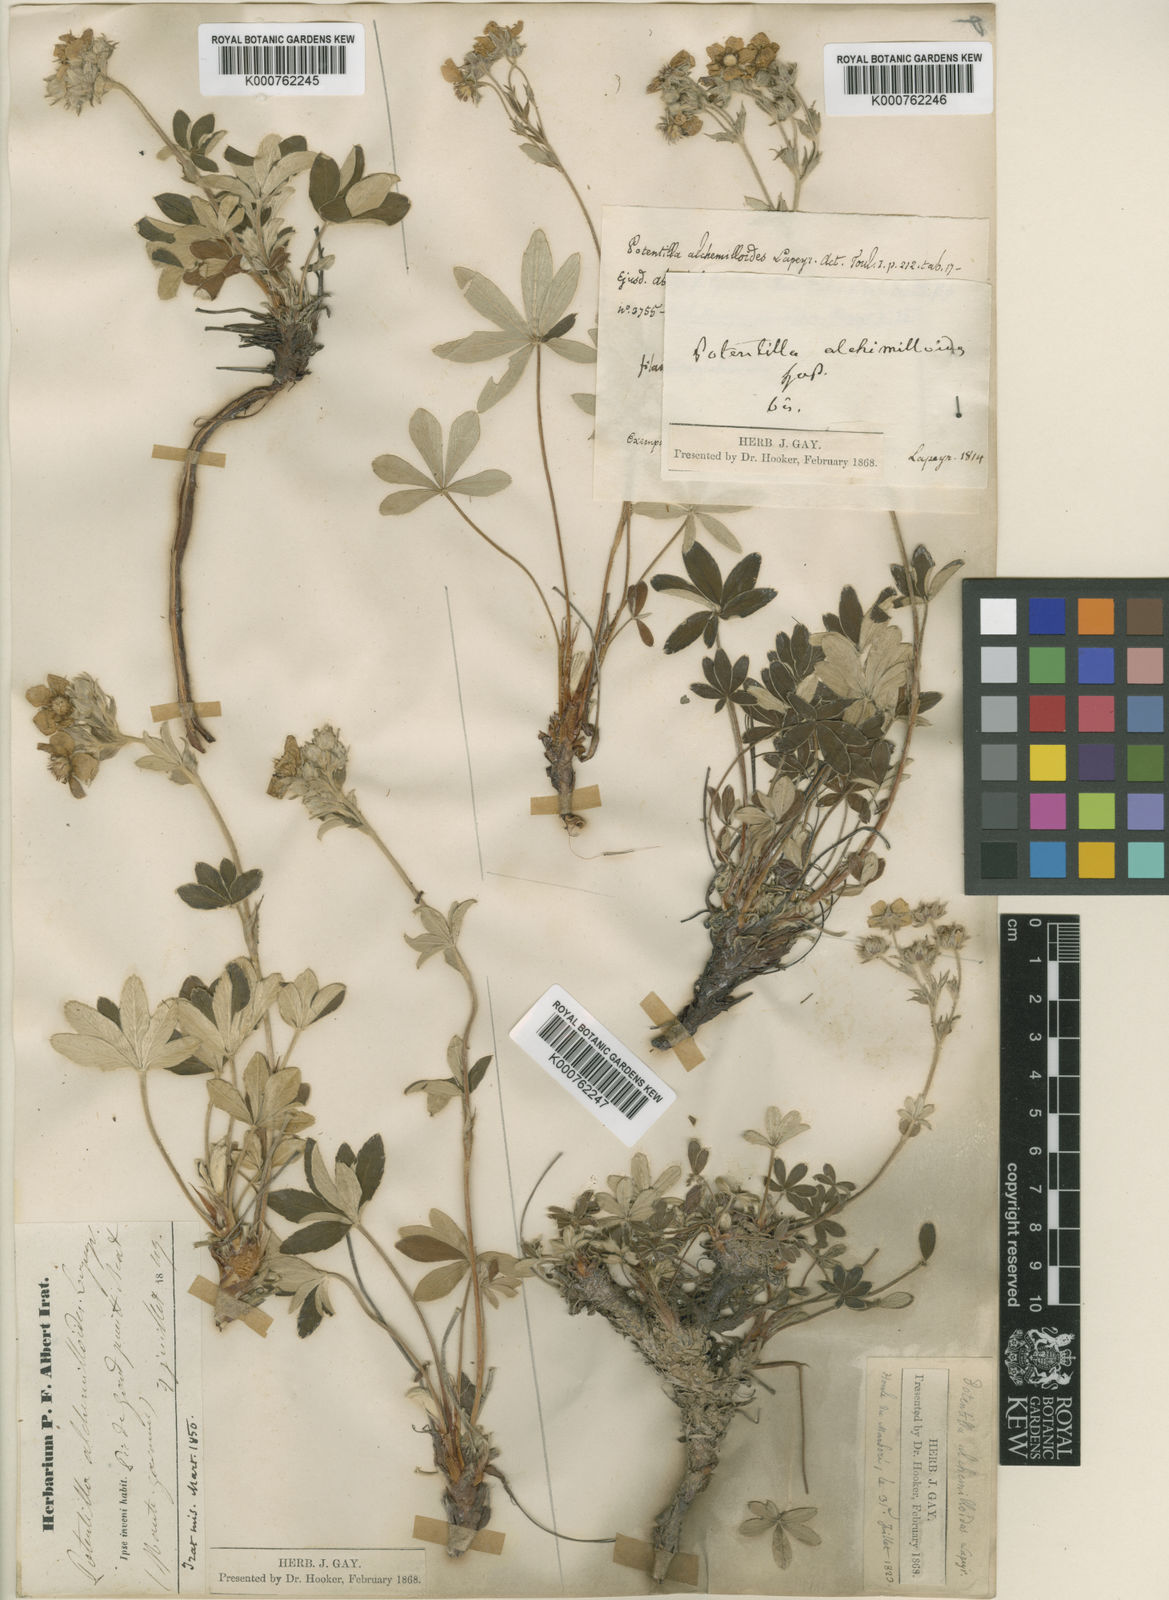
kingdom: Plantae
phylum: Tracheophyta
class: Magnoliopsida
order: Rosales
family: Rosaceae
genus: Potentilla
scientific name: Potentilla
